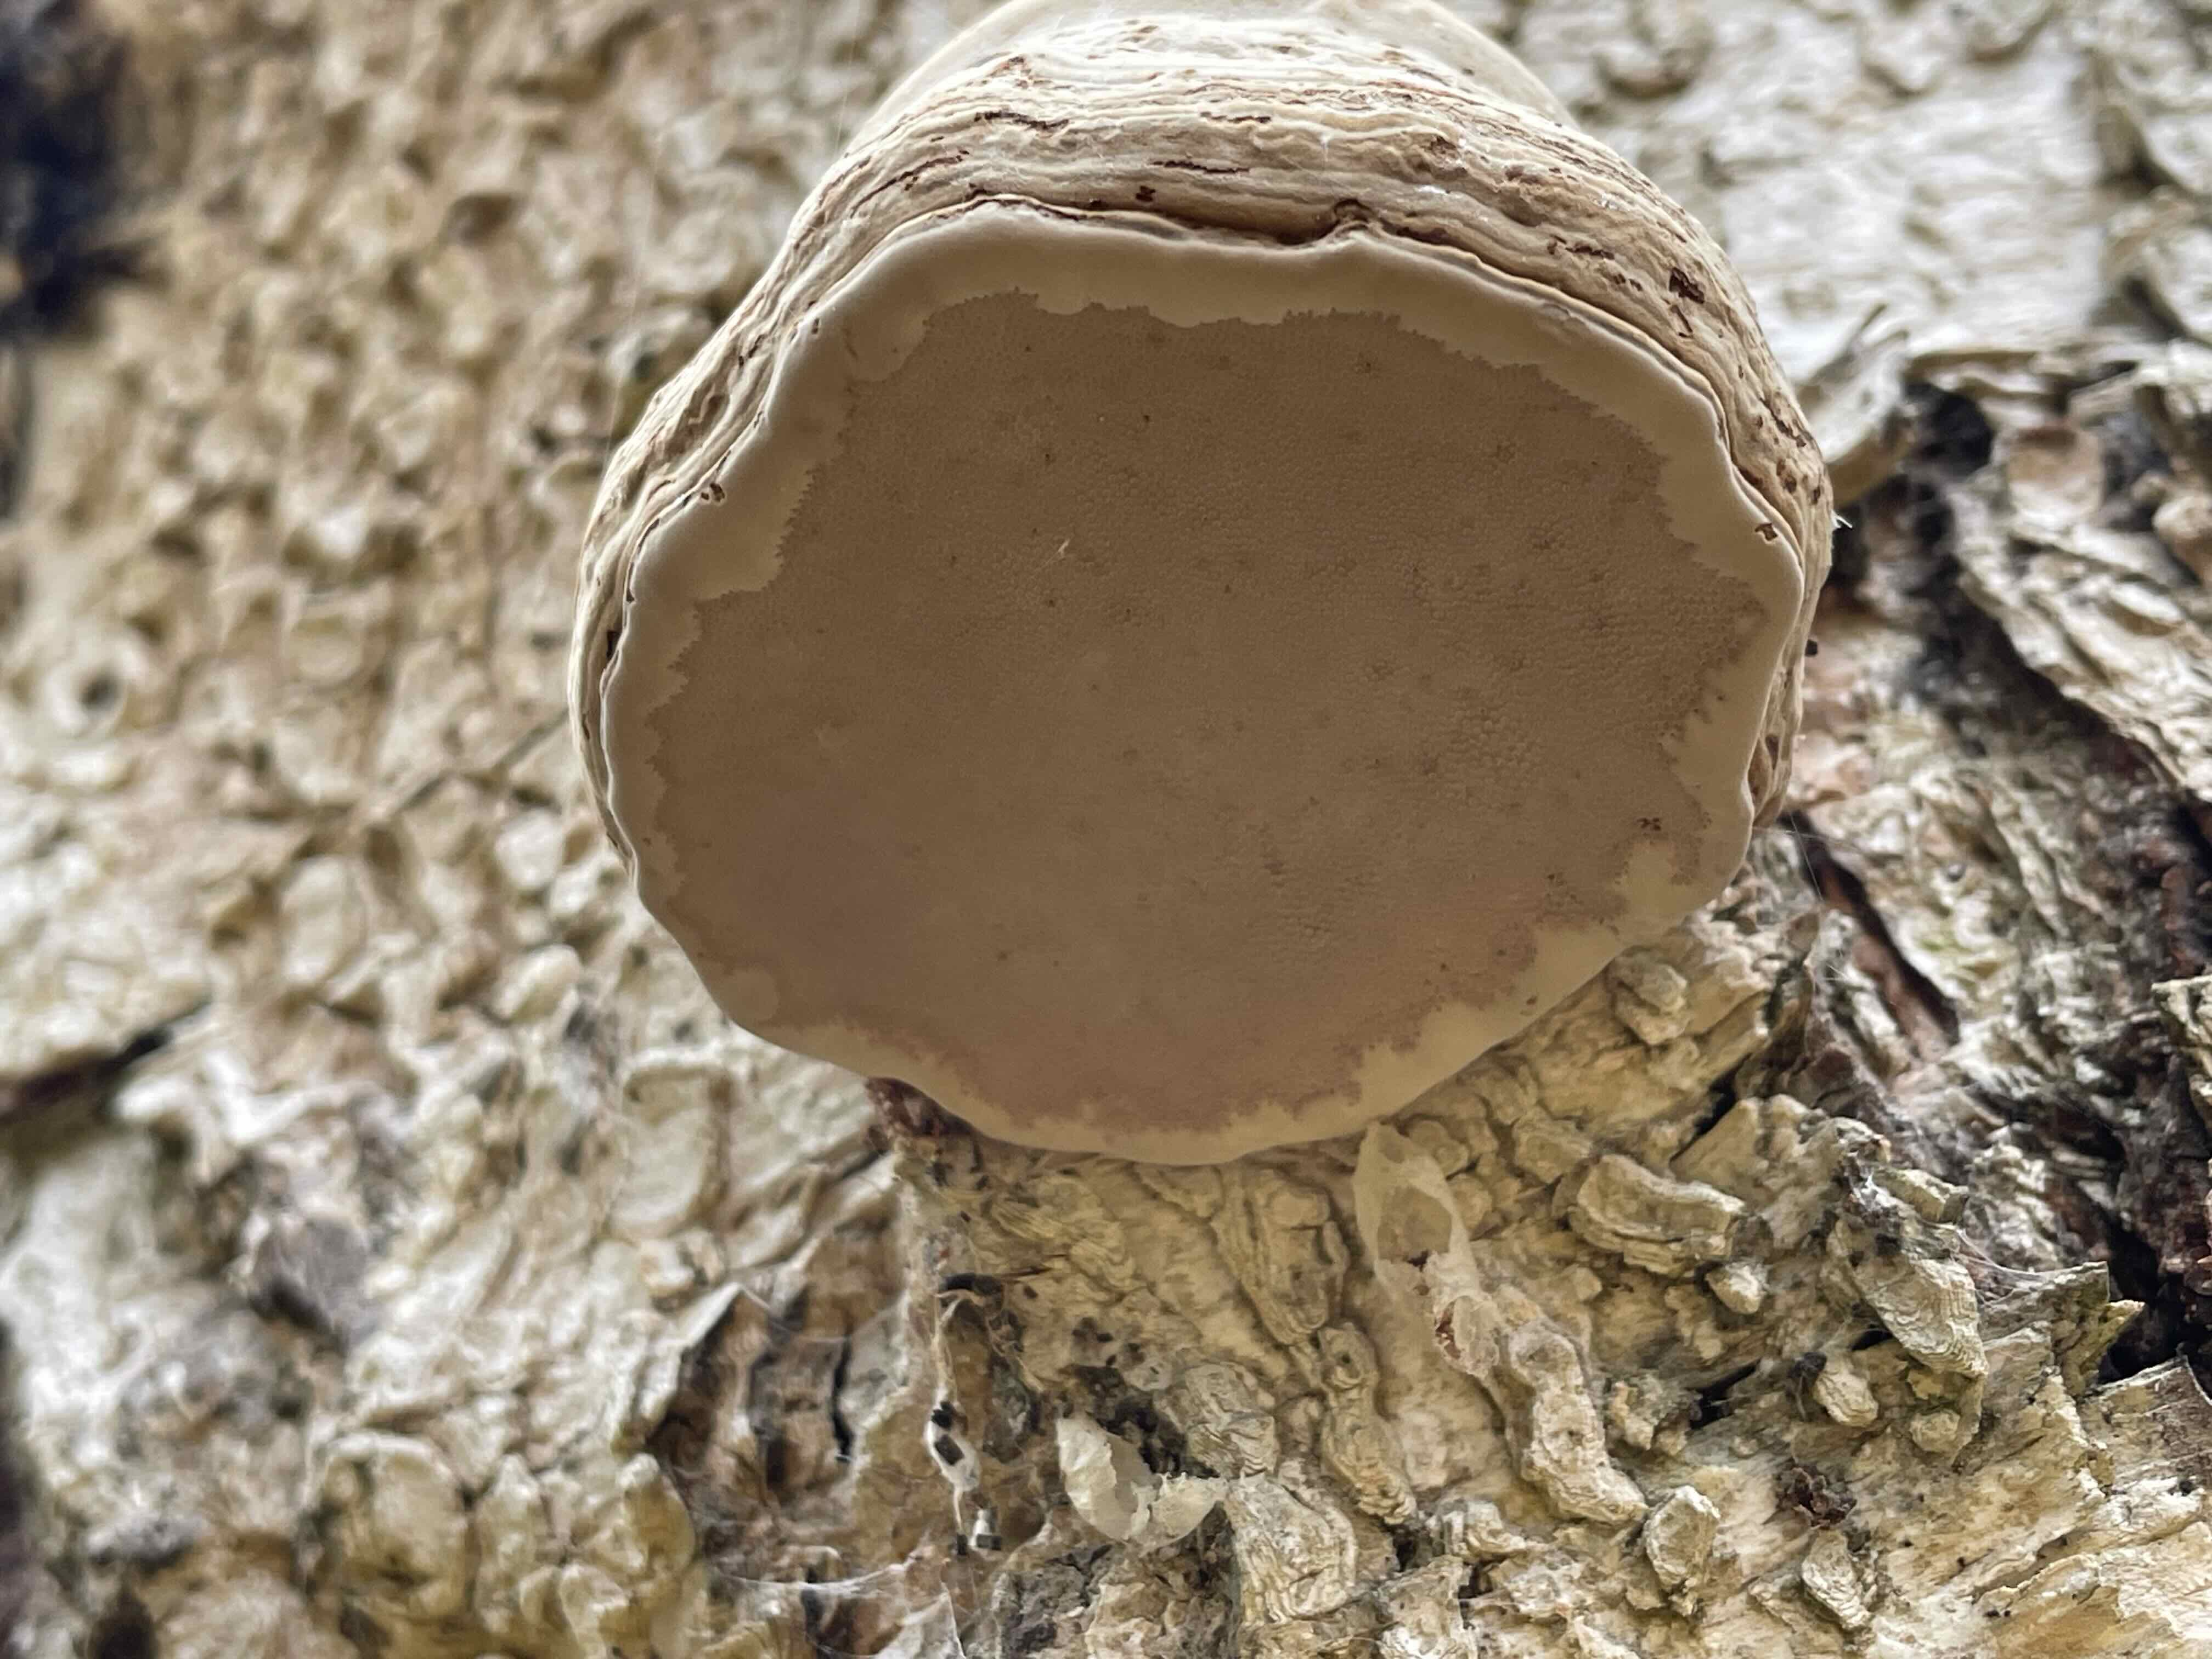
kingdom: Fungi
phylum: Basidiomycota
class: Agaricomycetes
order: Polyporales
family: Polyporaceae
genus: Fomes
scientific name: Fomes fomentarius
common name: tøndersvamp
